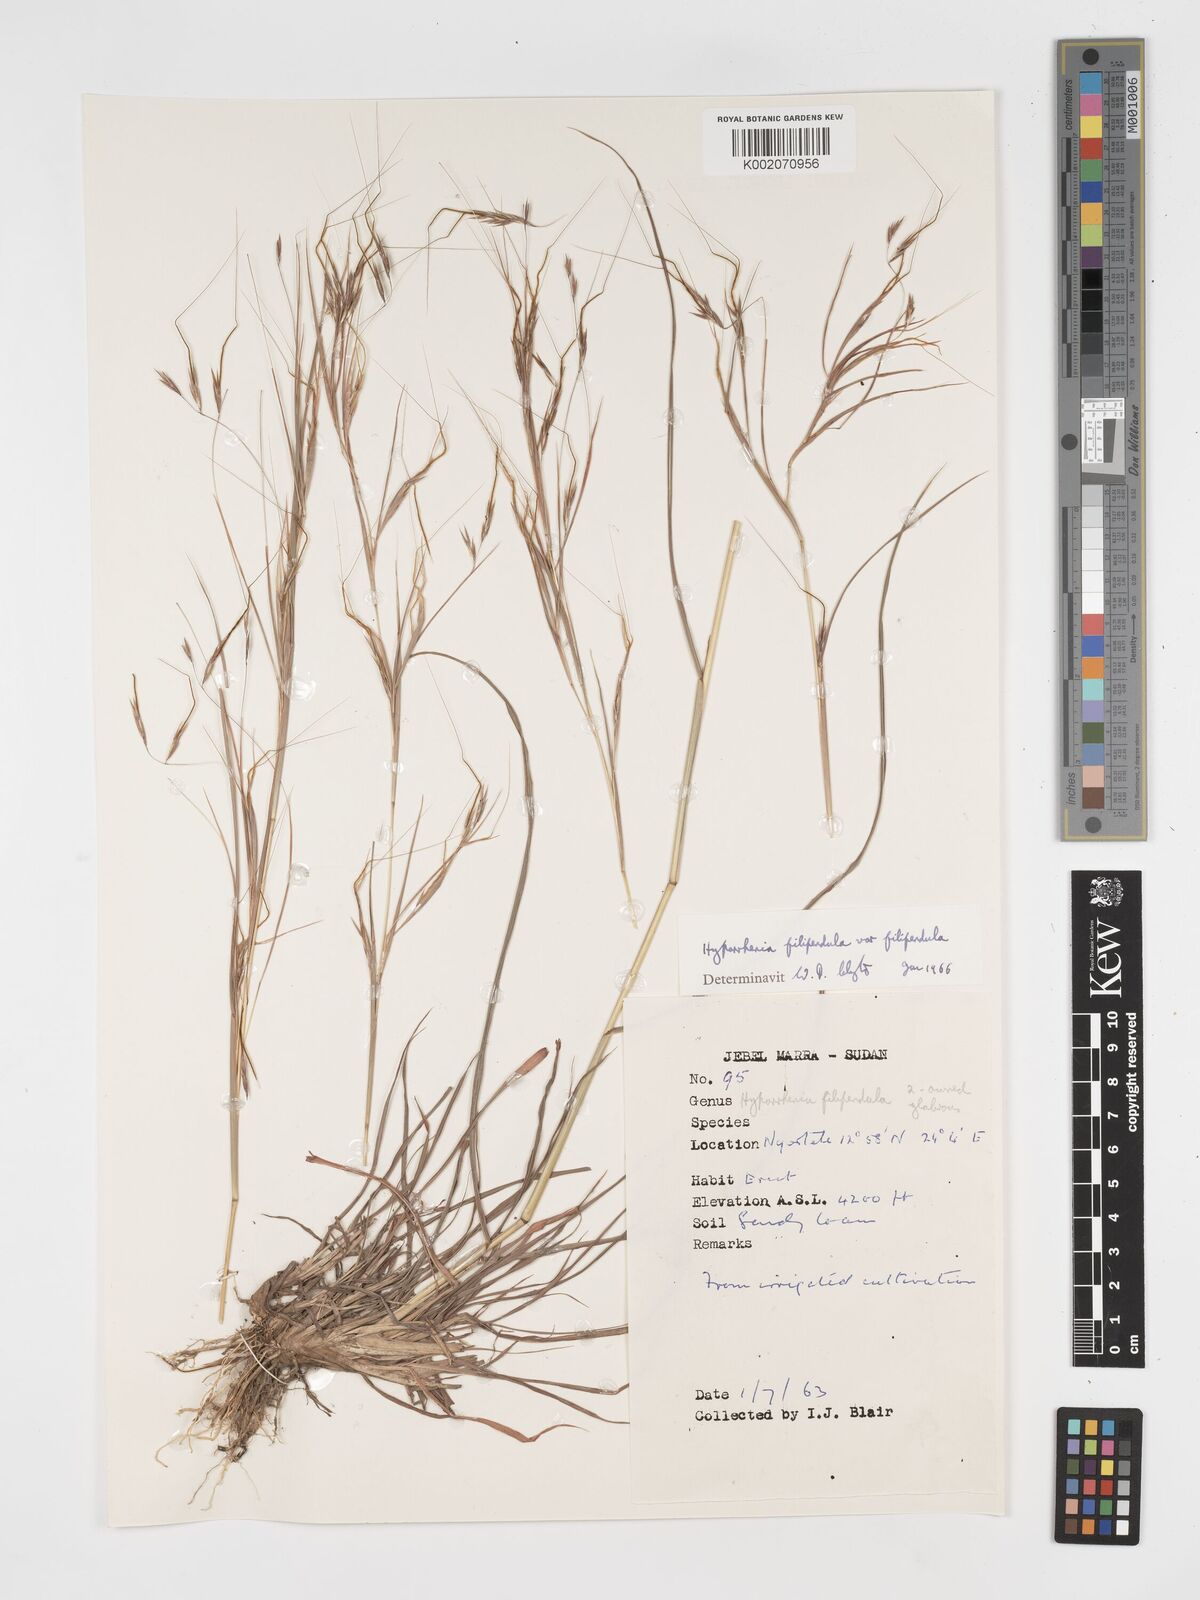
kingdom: Plantae
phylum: Tracheophyta
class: Liliopsida
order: Poales
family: Poaceae
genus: Hyparrhenia
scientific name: Hyparrhenia filipendula
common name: Tambookie grass
